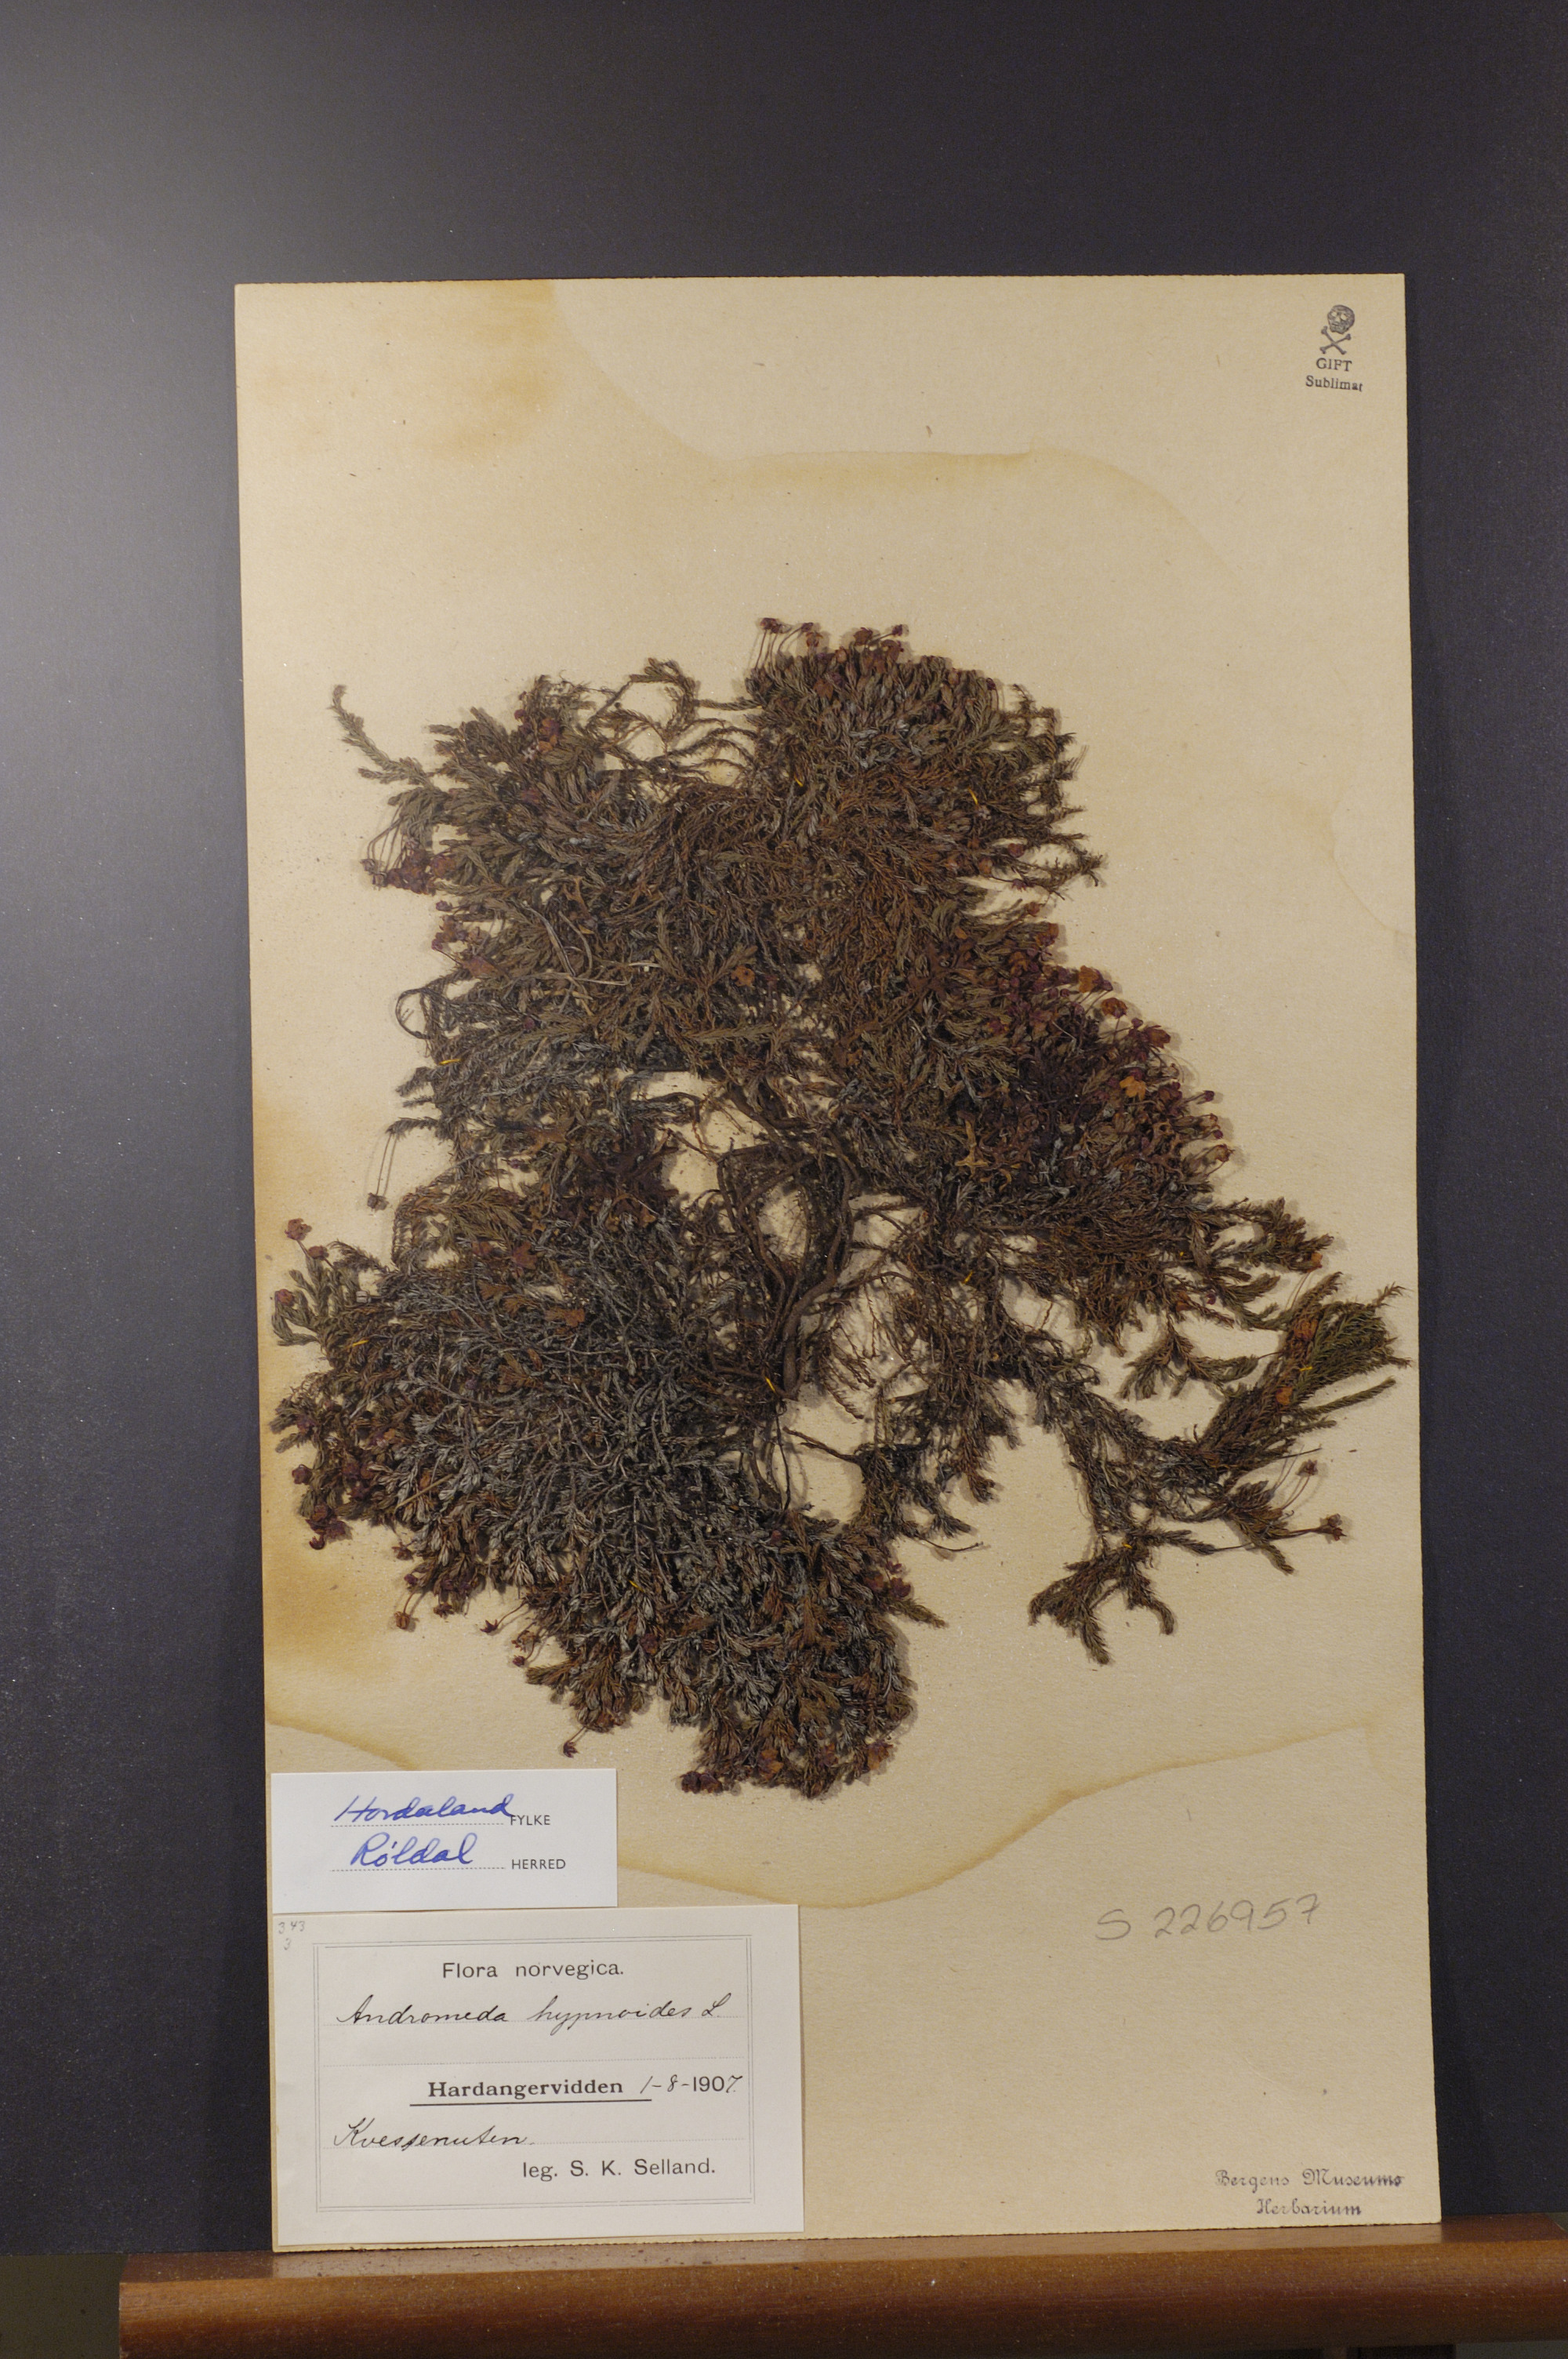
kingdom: Plantae
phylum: Tracheophyta
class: Magnoliopsida
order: Ericales
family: Ericaceae
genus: Harrimanella
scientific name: Harrimanella hypnoides
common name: Moss bell heather
